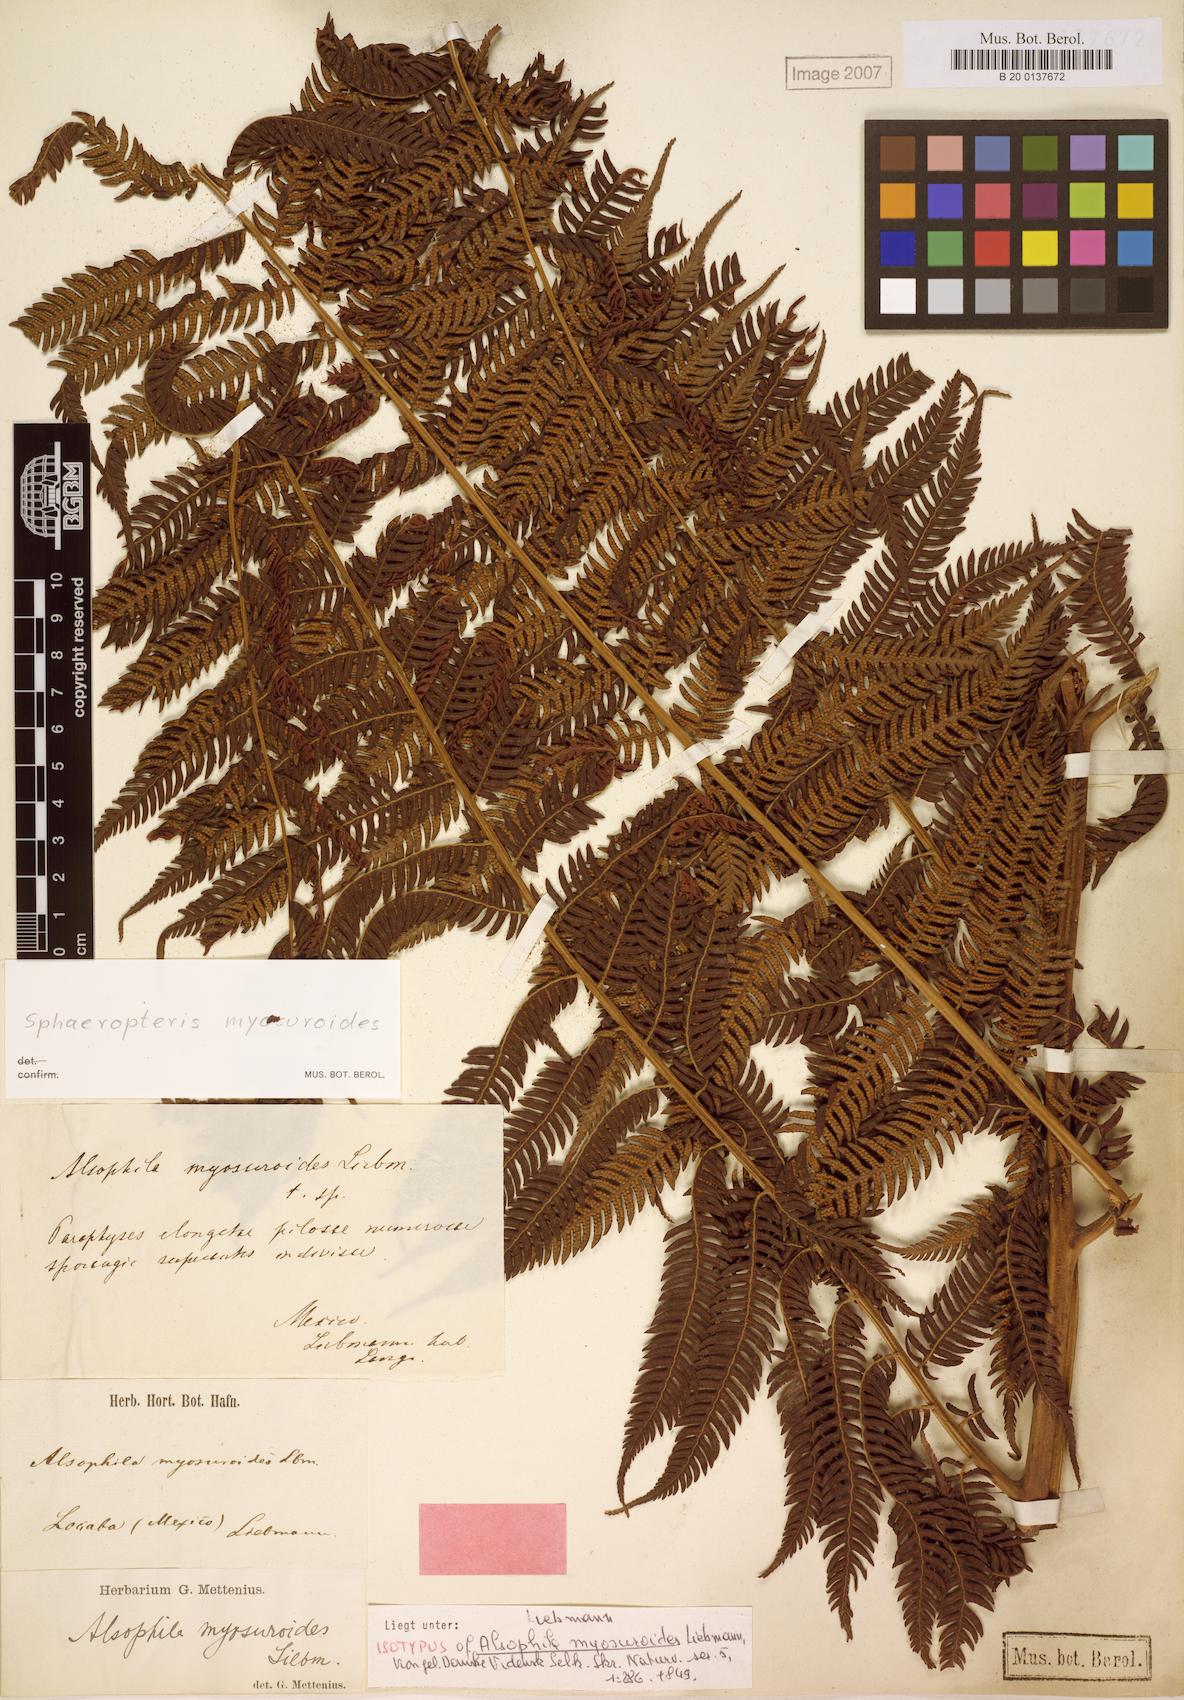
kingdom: Plantae
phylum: Tracheophyta
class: Polypodiopsida
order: Cyatheales
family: Cyatheaceae
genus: Sphaeropteris
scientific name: Sphaeropteris myosuroides
